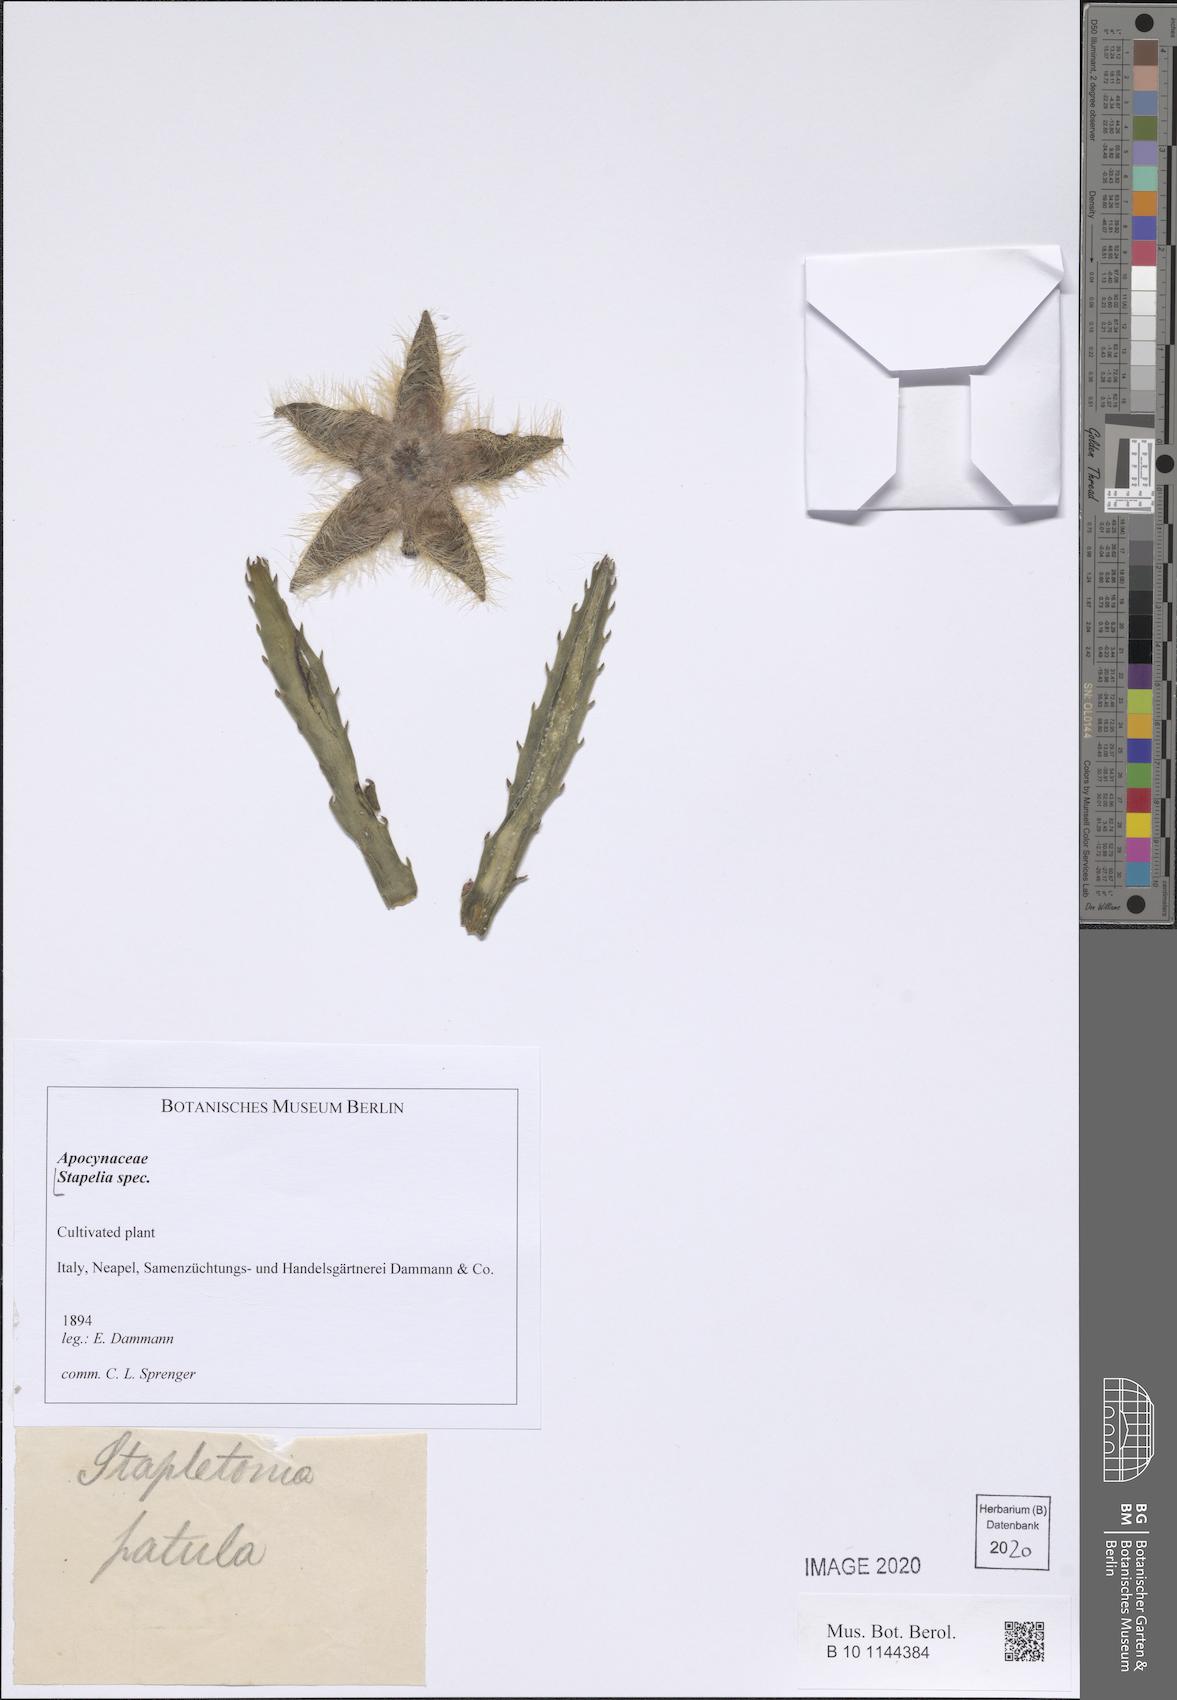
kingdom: Plantae
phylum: Tracheophyta
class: Magnoliopsida
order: Gentianales
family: Apocynaceae
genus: Stapelia
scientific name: Stapelia
